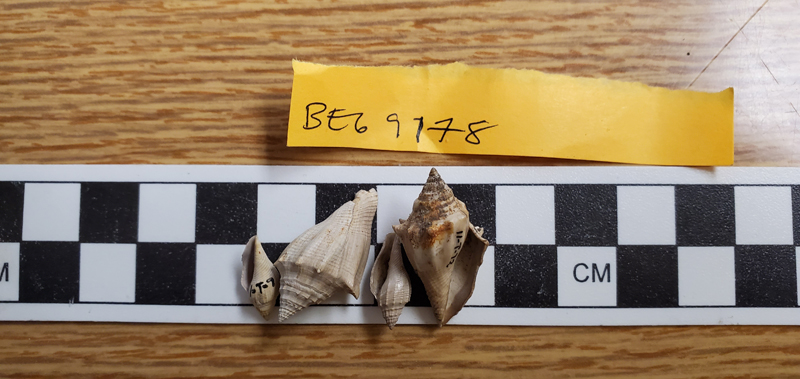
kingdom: Animalia
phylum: Mollusca
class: Gastropoda
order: Neogastropoda
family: Volutidae
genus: Athleta
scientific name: Athleta
